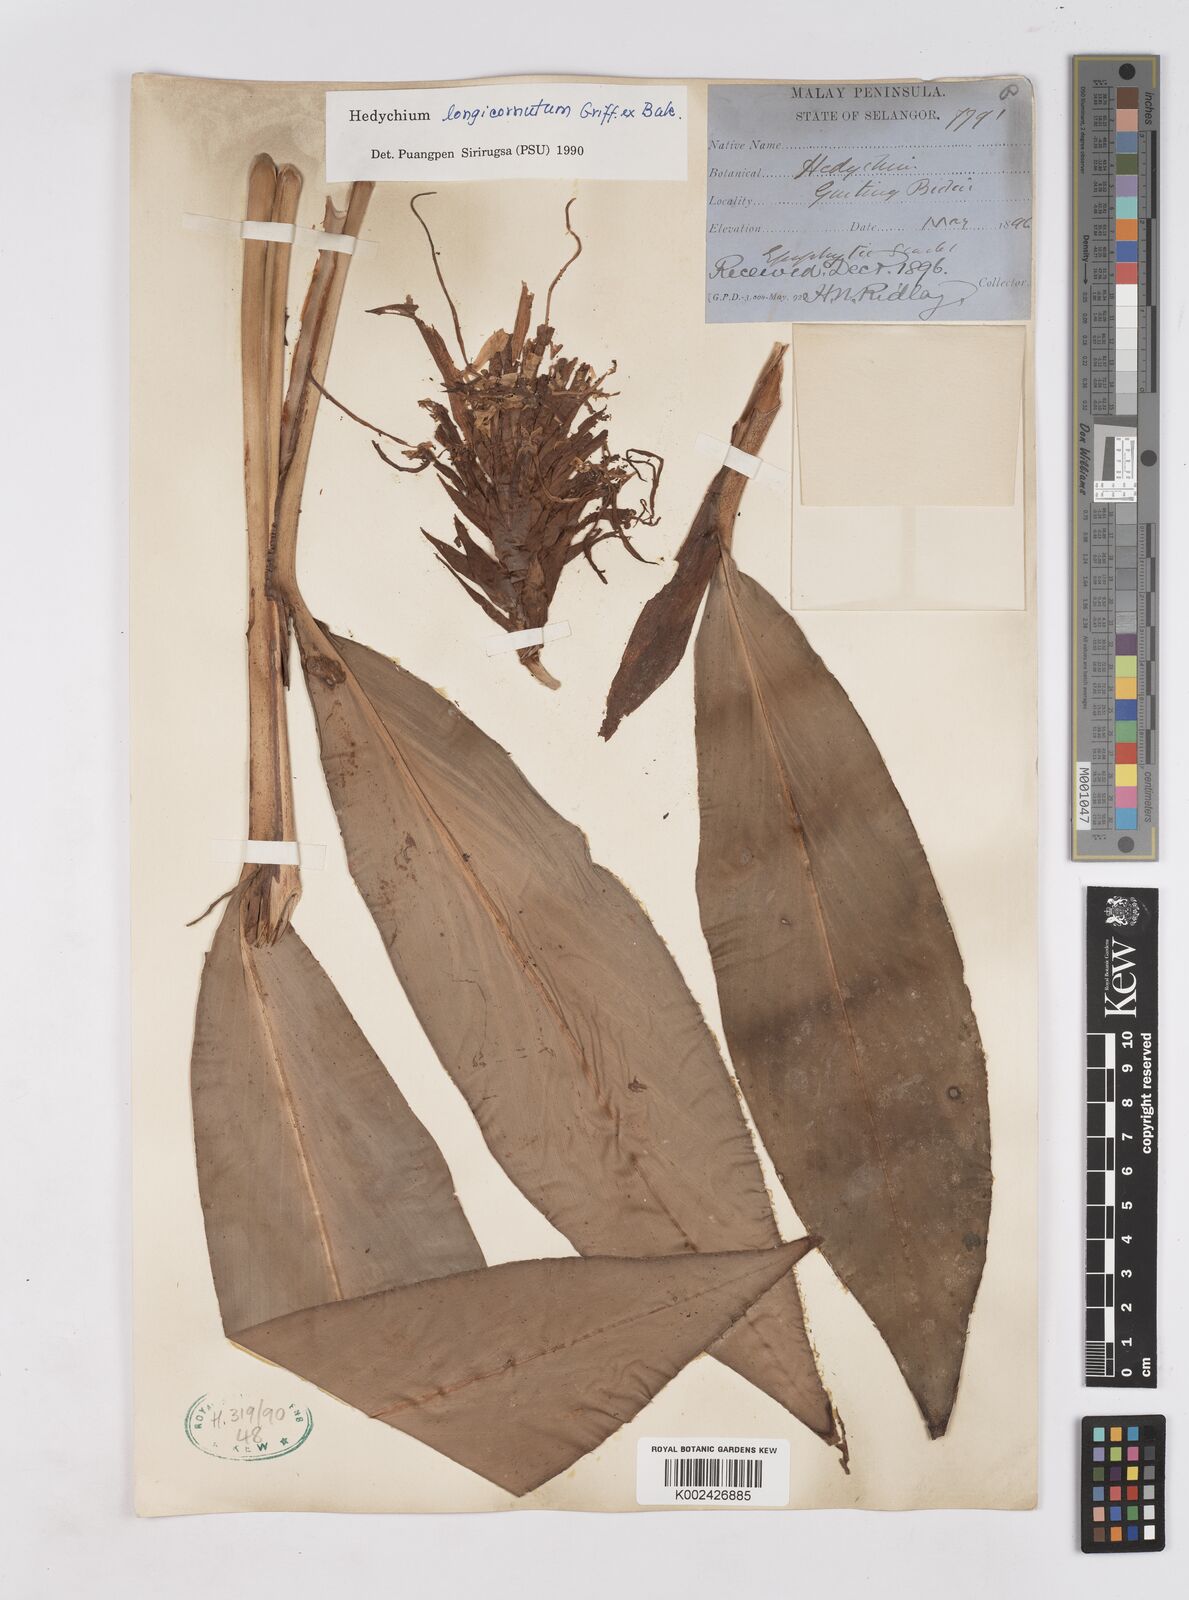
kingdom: Plantae
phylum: Tracheophyta
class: Liliopsida
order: Zingiberales
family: Zingiberaceae
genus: Hedychium
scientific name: Hedychium longicornutum
